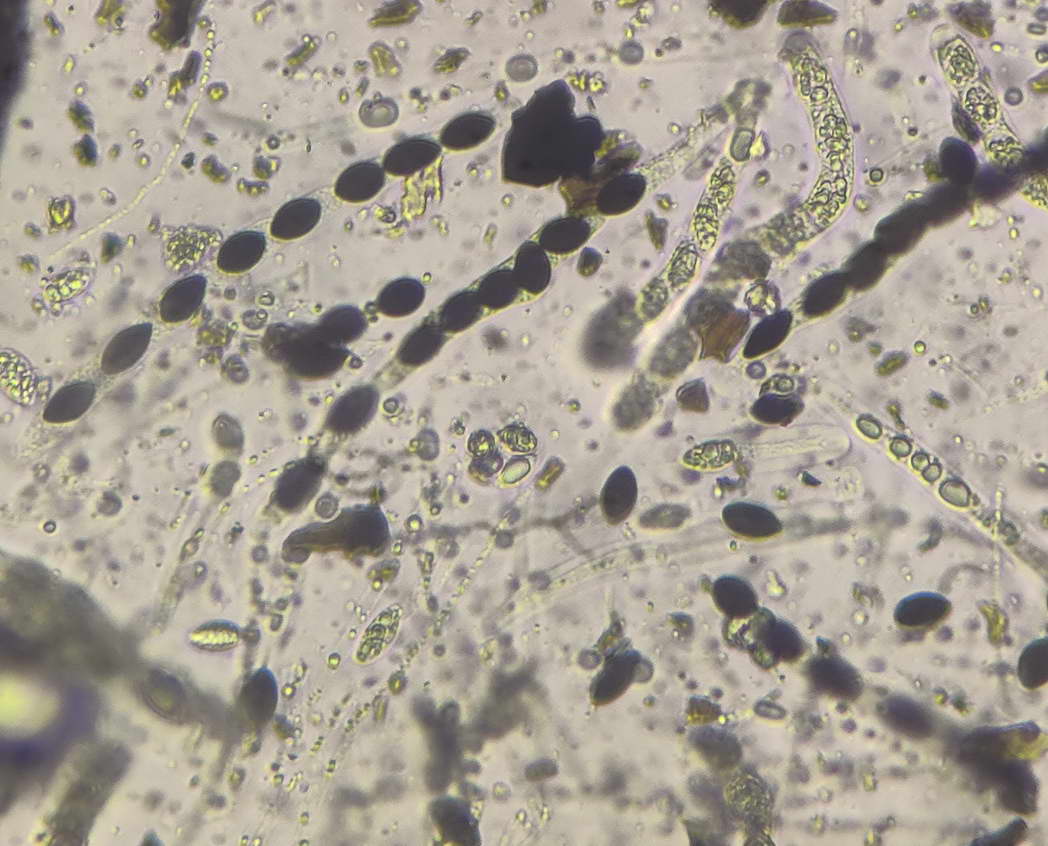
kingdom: Fungi
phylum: Ascomycota
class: Sordariomycetes
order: Xylariales
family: Graphostromataceae
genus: Biscogniauxia
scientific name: Biscogniauxia nummularia
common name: bøge-kulskive
